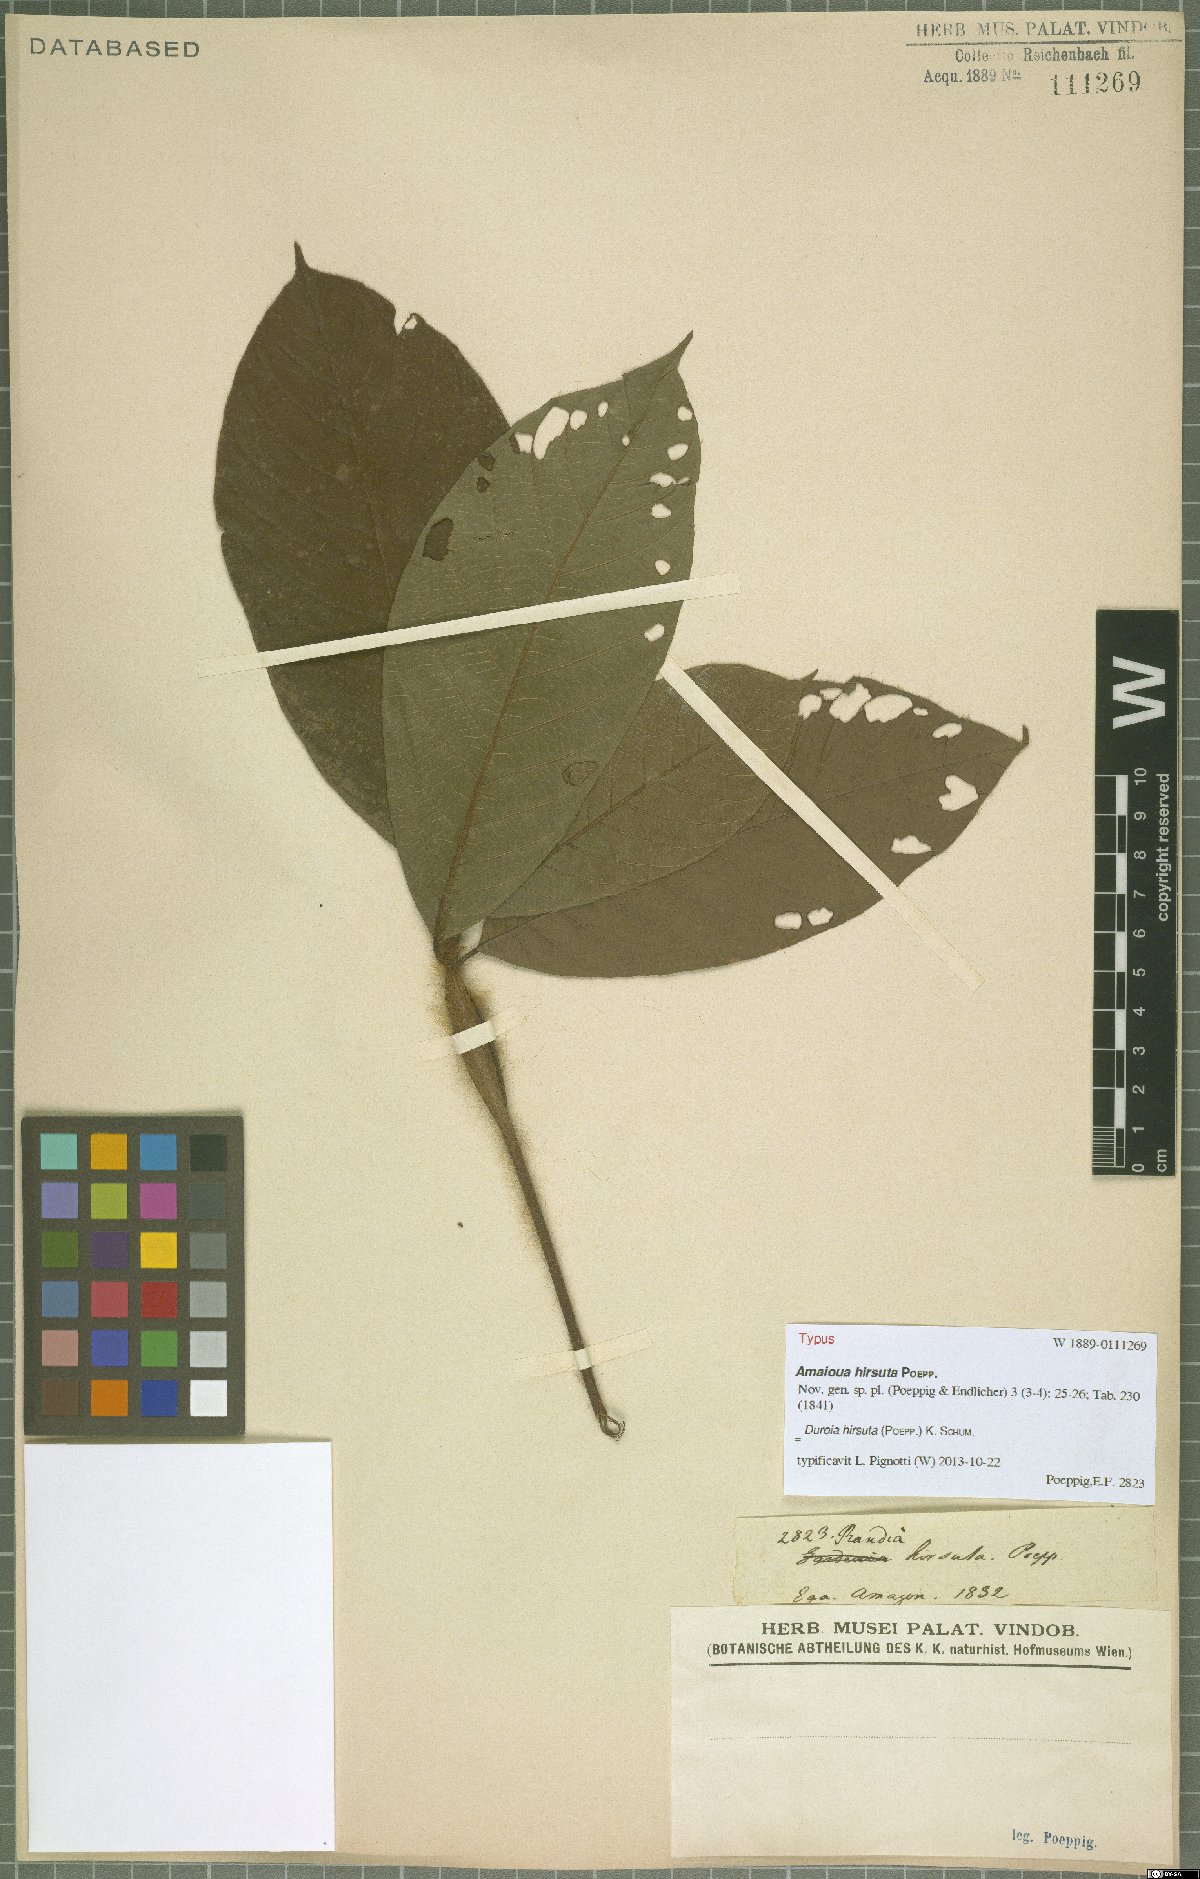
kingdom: Plantae
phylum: Tracheophyta
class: Magnoliopsida
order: Gentianales
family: Rubiaceae
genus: Duroia
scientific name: Duroia hirsuta
